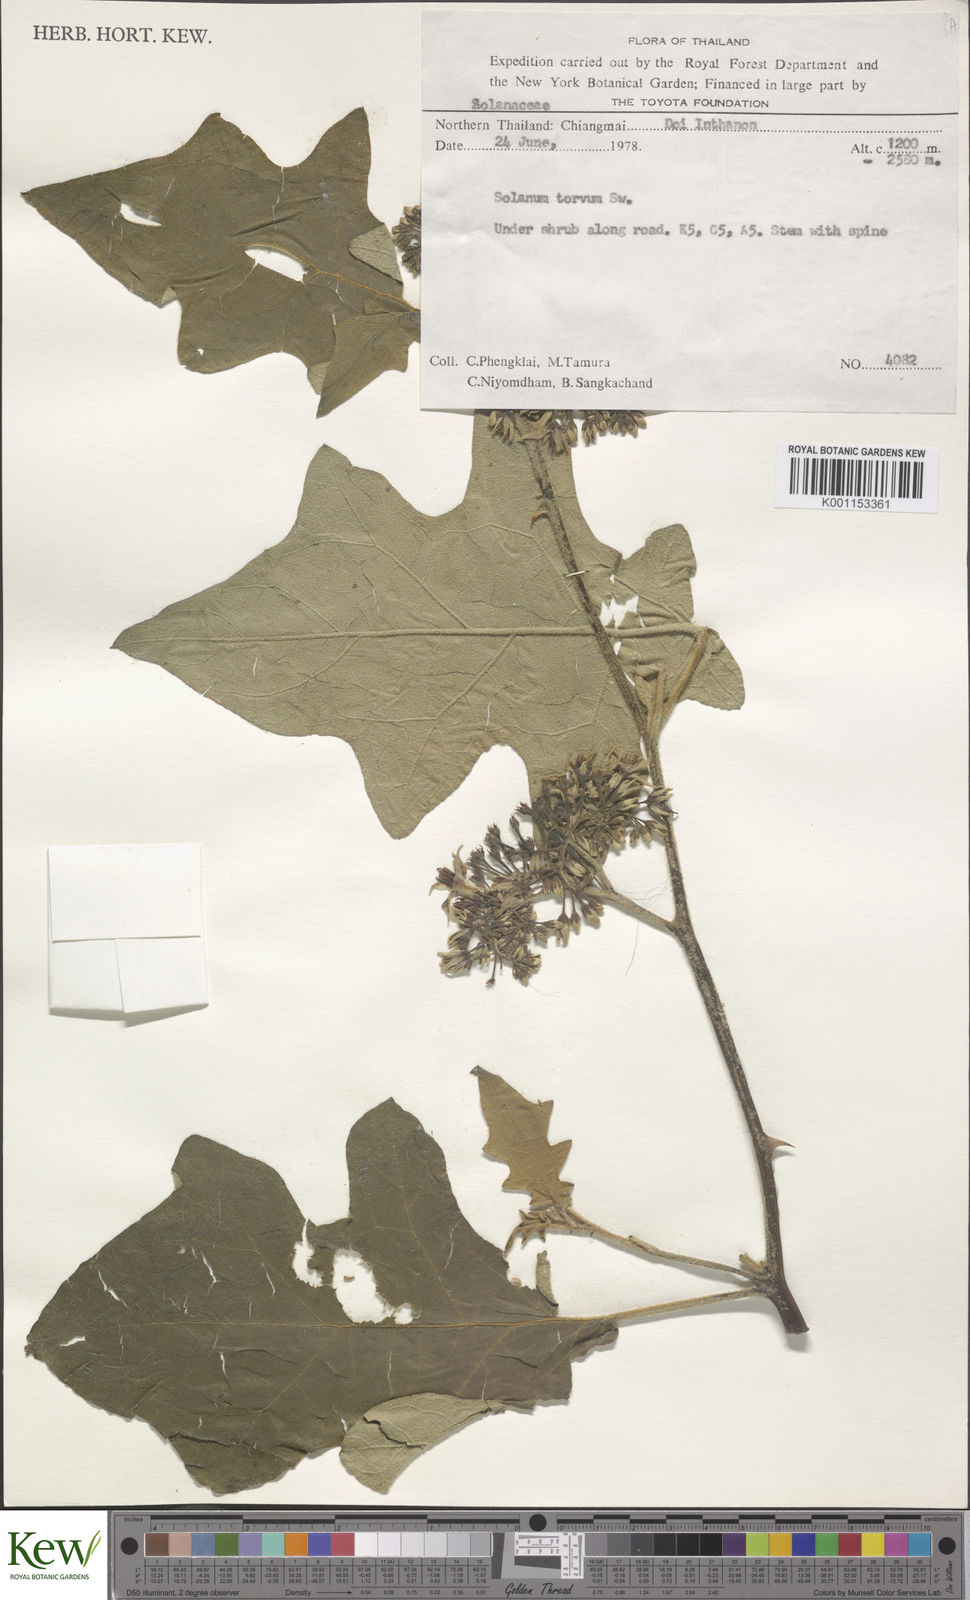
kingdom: Plantae
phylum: Tracheophyta
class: Magnoliopsida
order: Solanales
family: Solanaceae
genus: Solanum
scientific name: Solanum torvum
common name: Turkey berry
